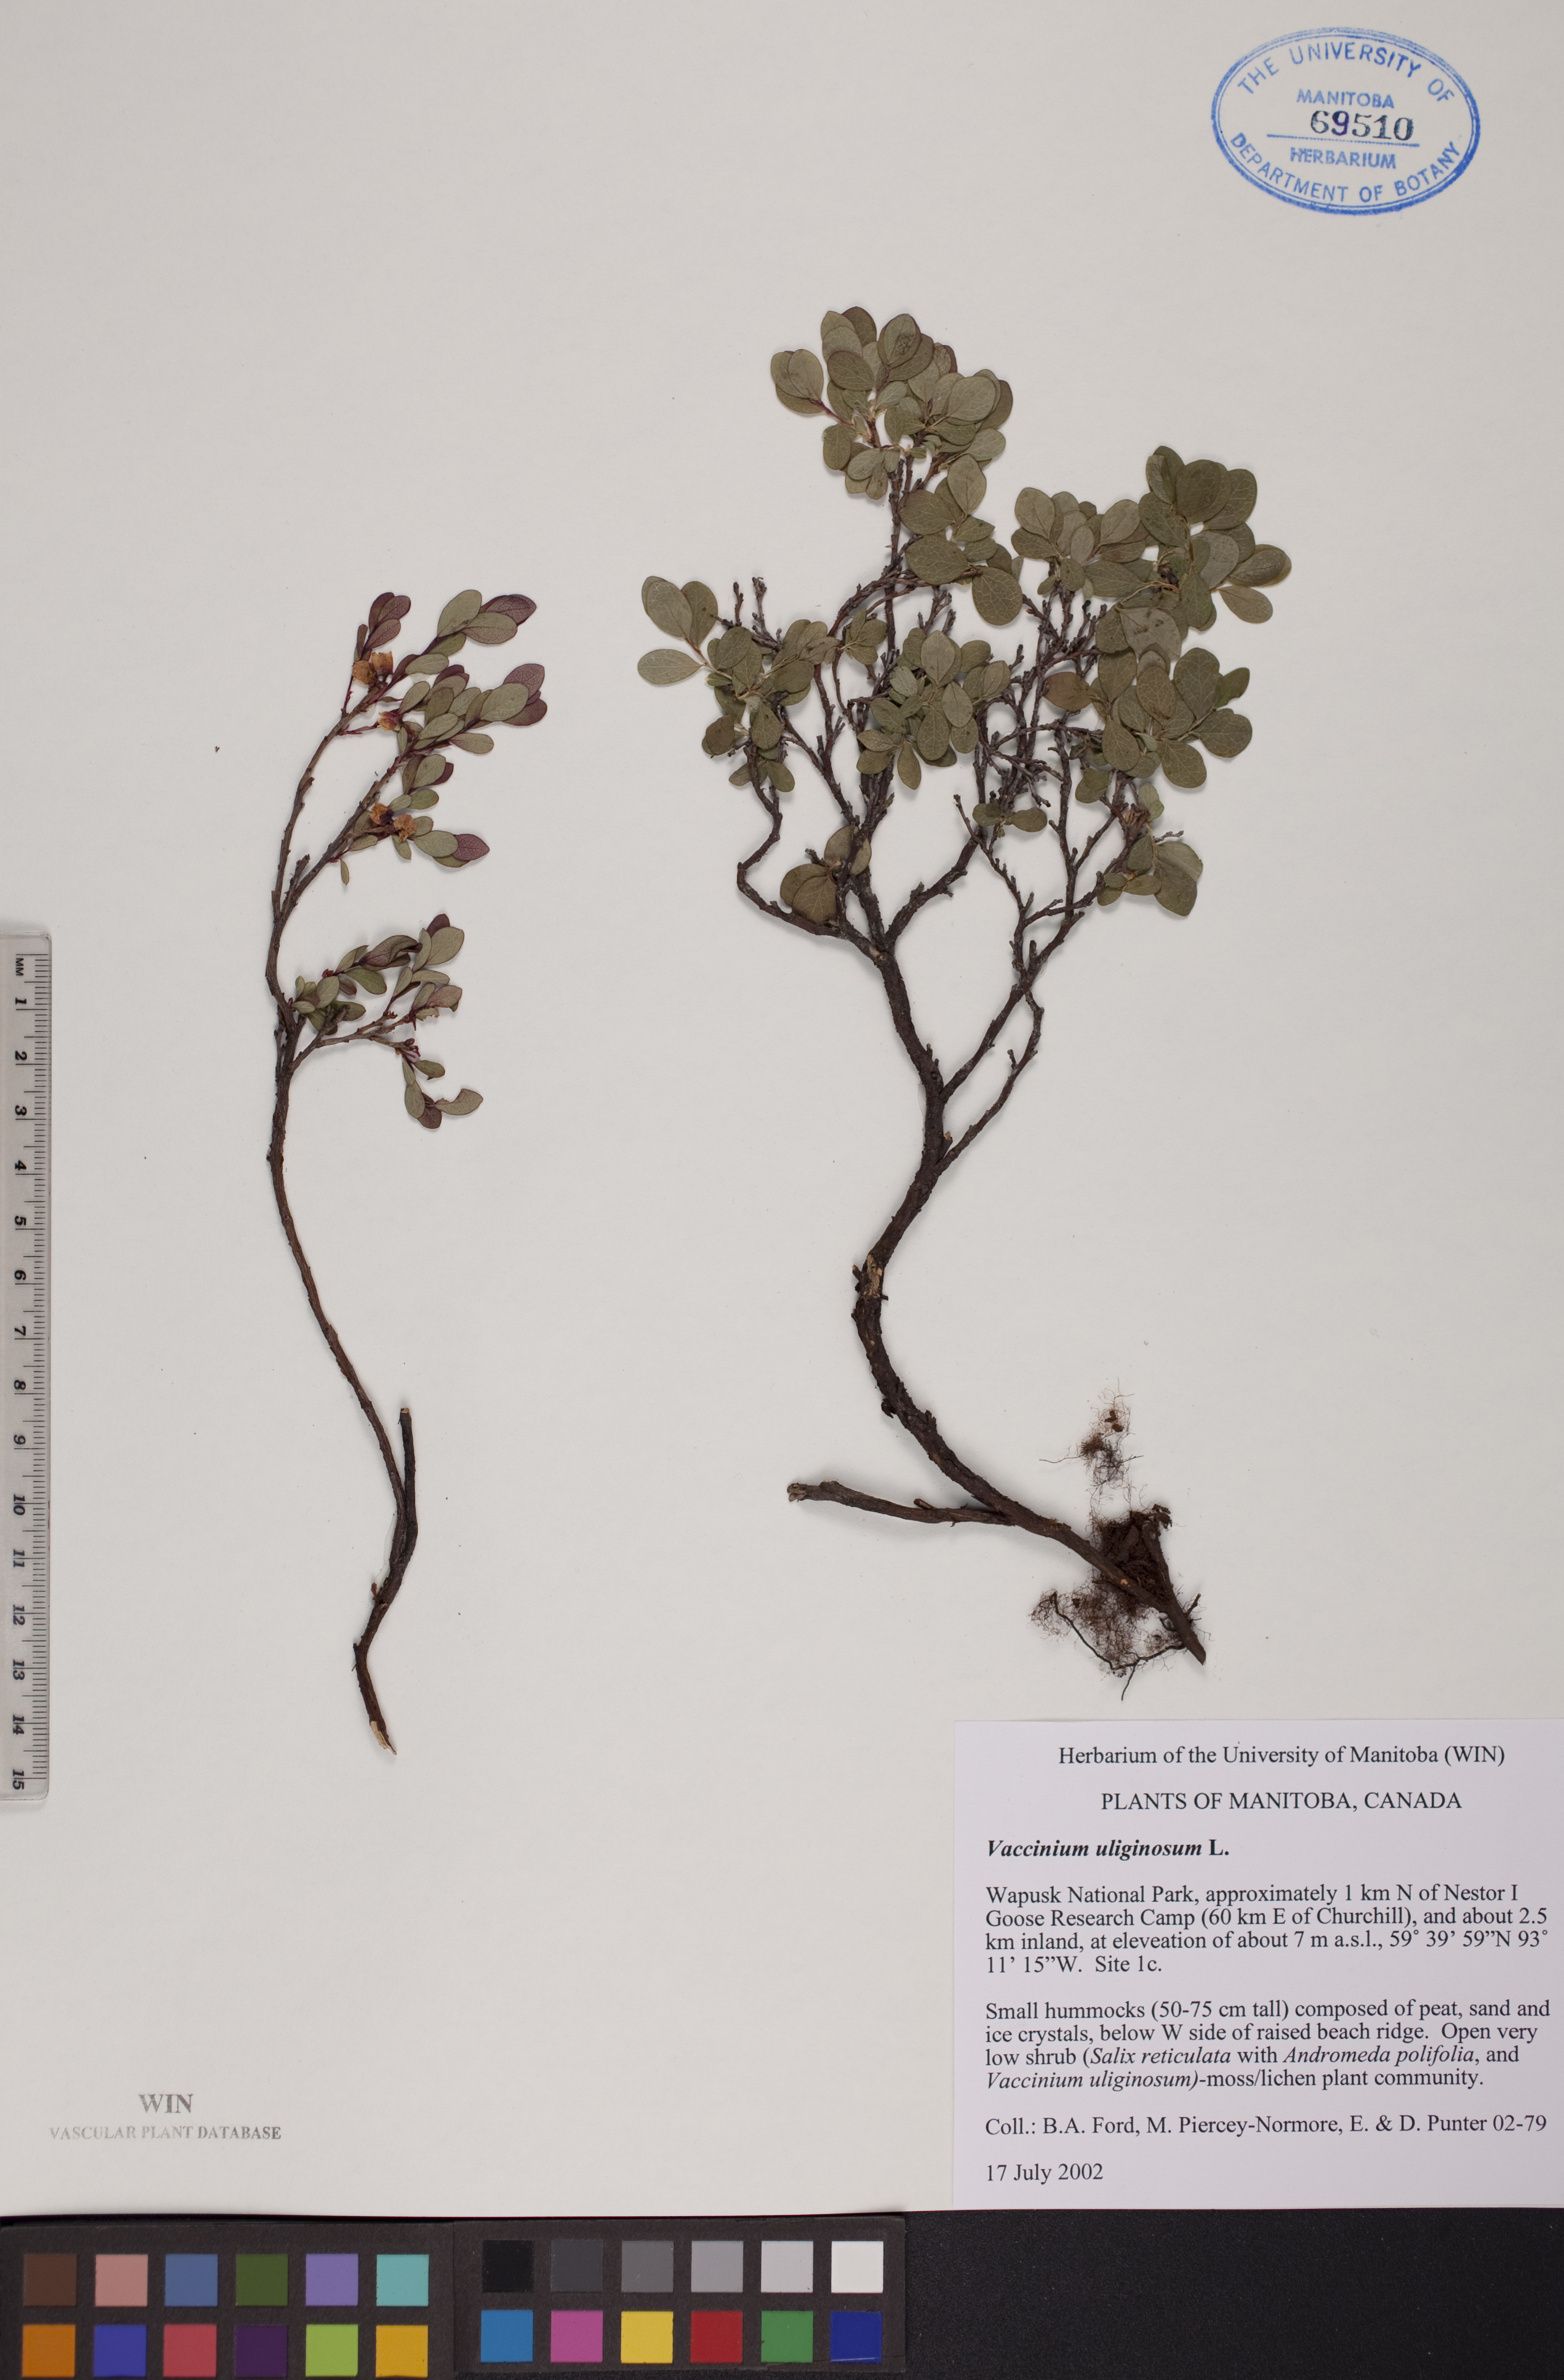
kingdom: Plantae
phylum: Tracheophyta
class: Magnoliopsida
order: Ericales
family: Ericaceae
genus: Vaccinium
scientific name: Vaccinium uliginosum
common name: Bog bilberry
